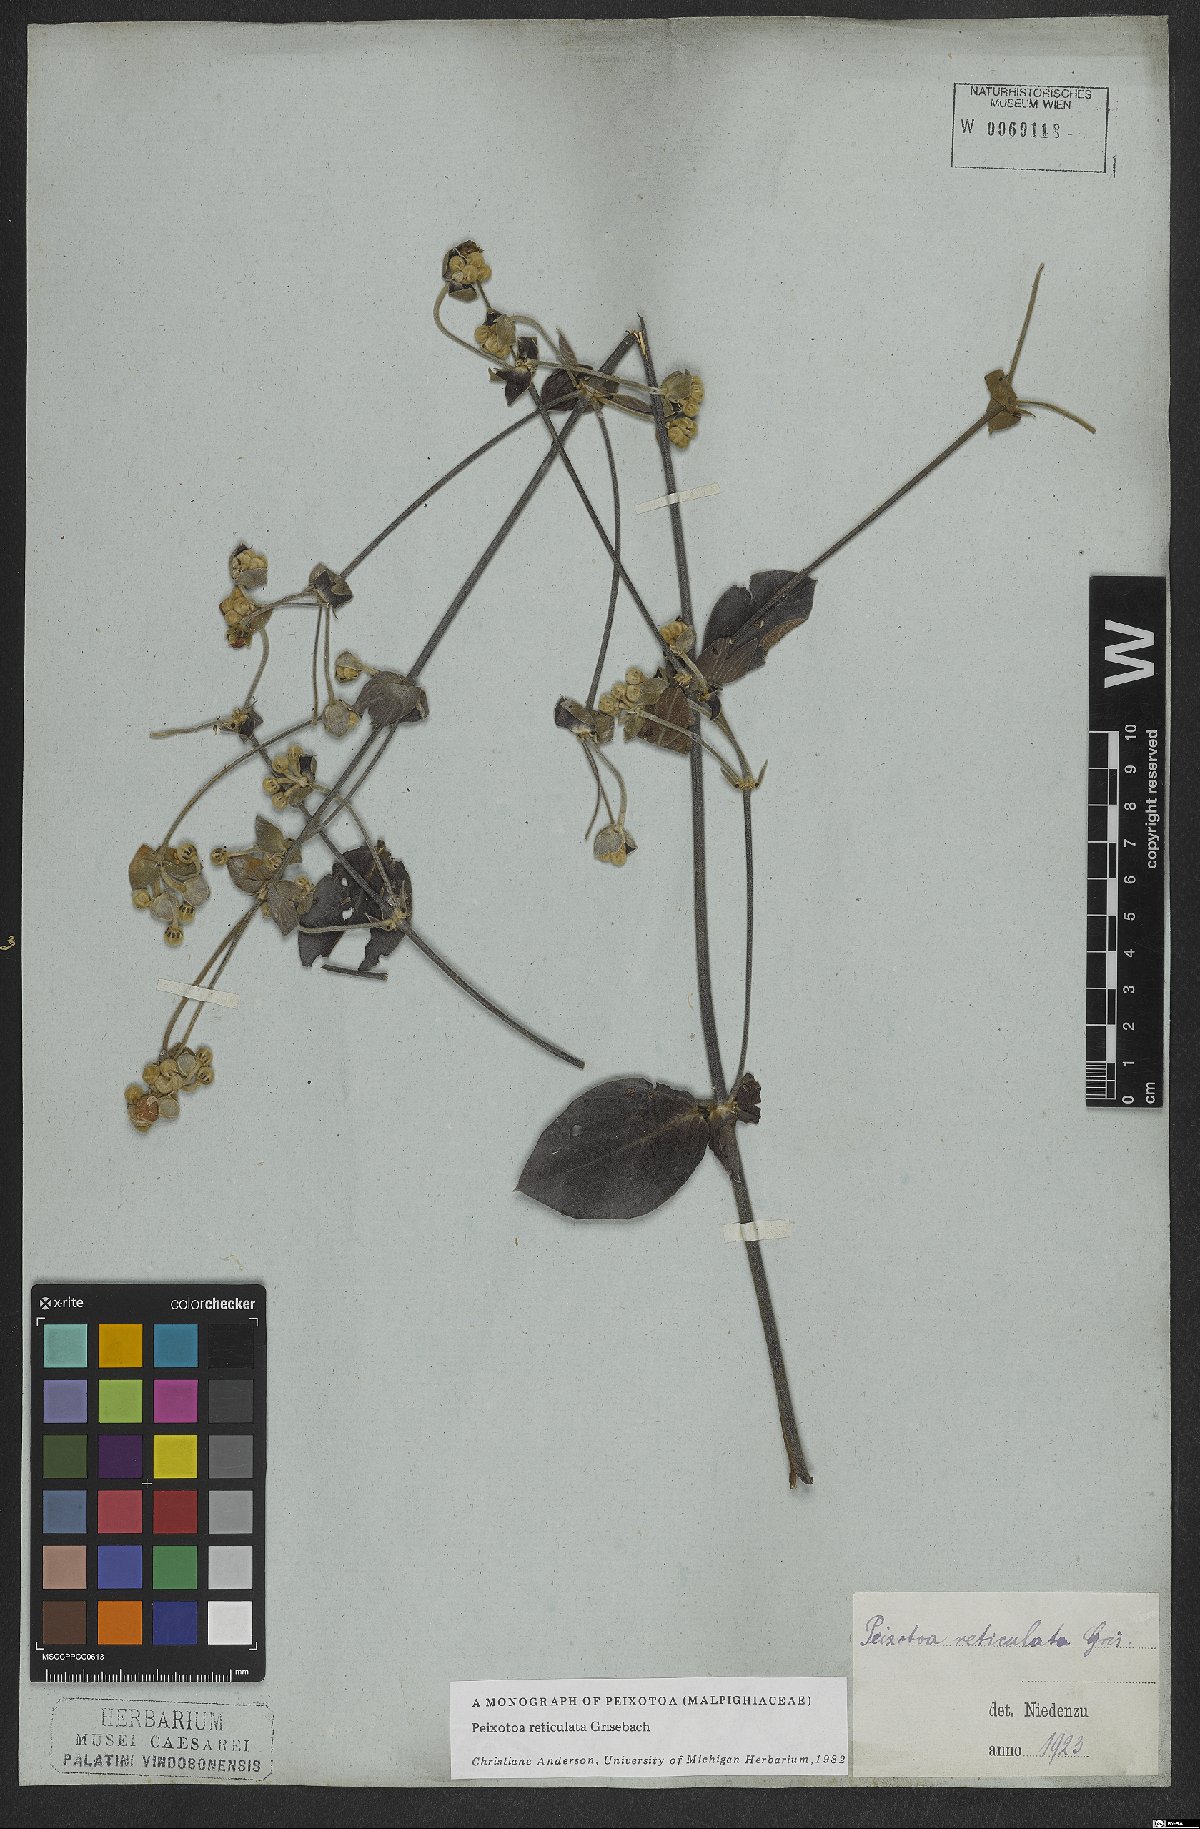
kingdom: Plantae
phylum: Tracheophyta
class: Magnoliopsida
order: Malpighiales
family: Malpighiaceae
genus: Peixotoa
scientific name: Peixotoa reticulata
